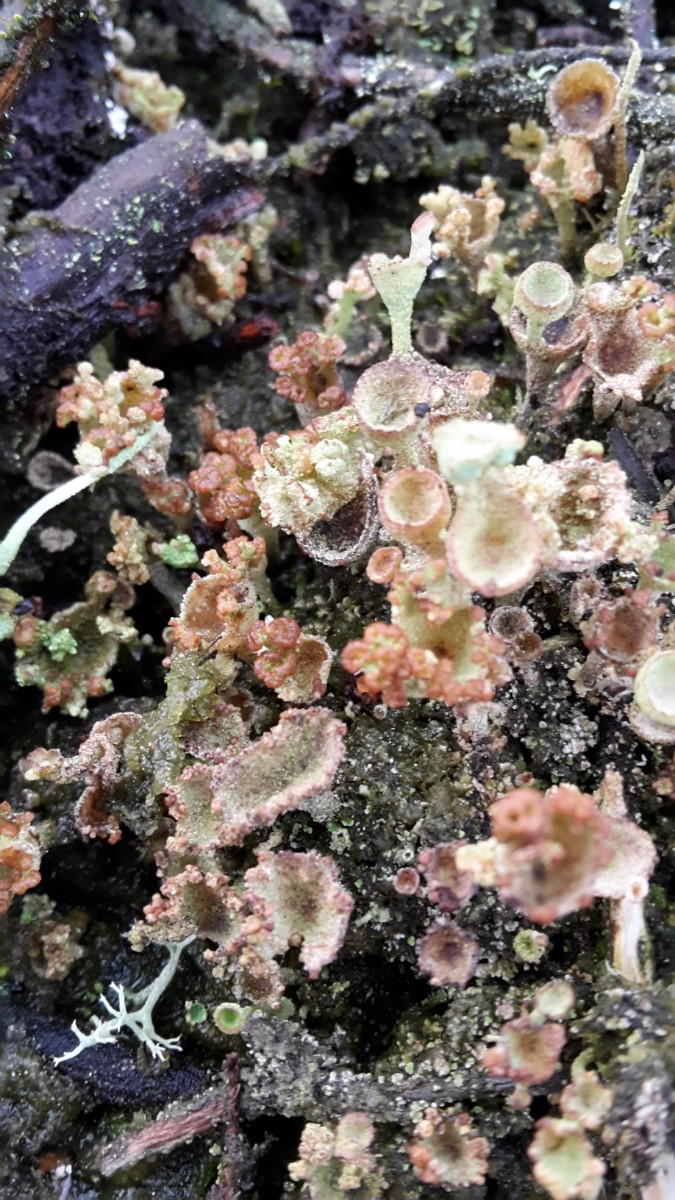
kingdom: Fungi
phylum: Ascomycota
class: Lecanoromycetes
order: Lecanorales
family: Cladoniaceae
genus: Cladonia
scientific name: Cladonia
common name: brungrøn bægerlav
